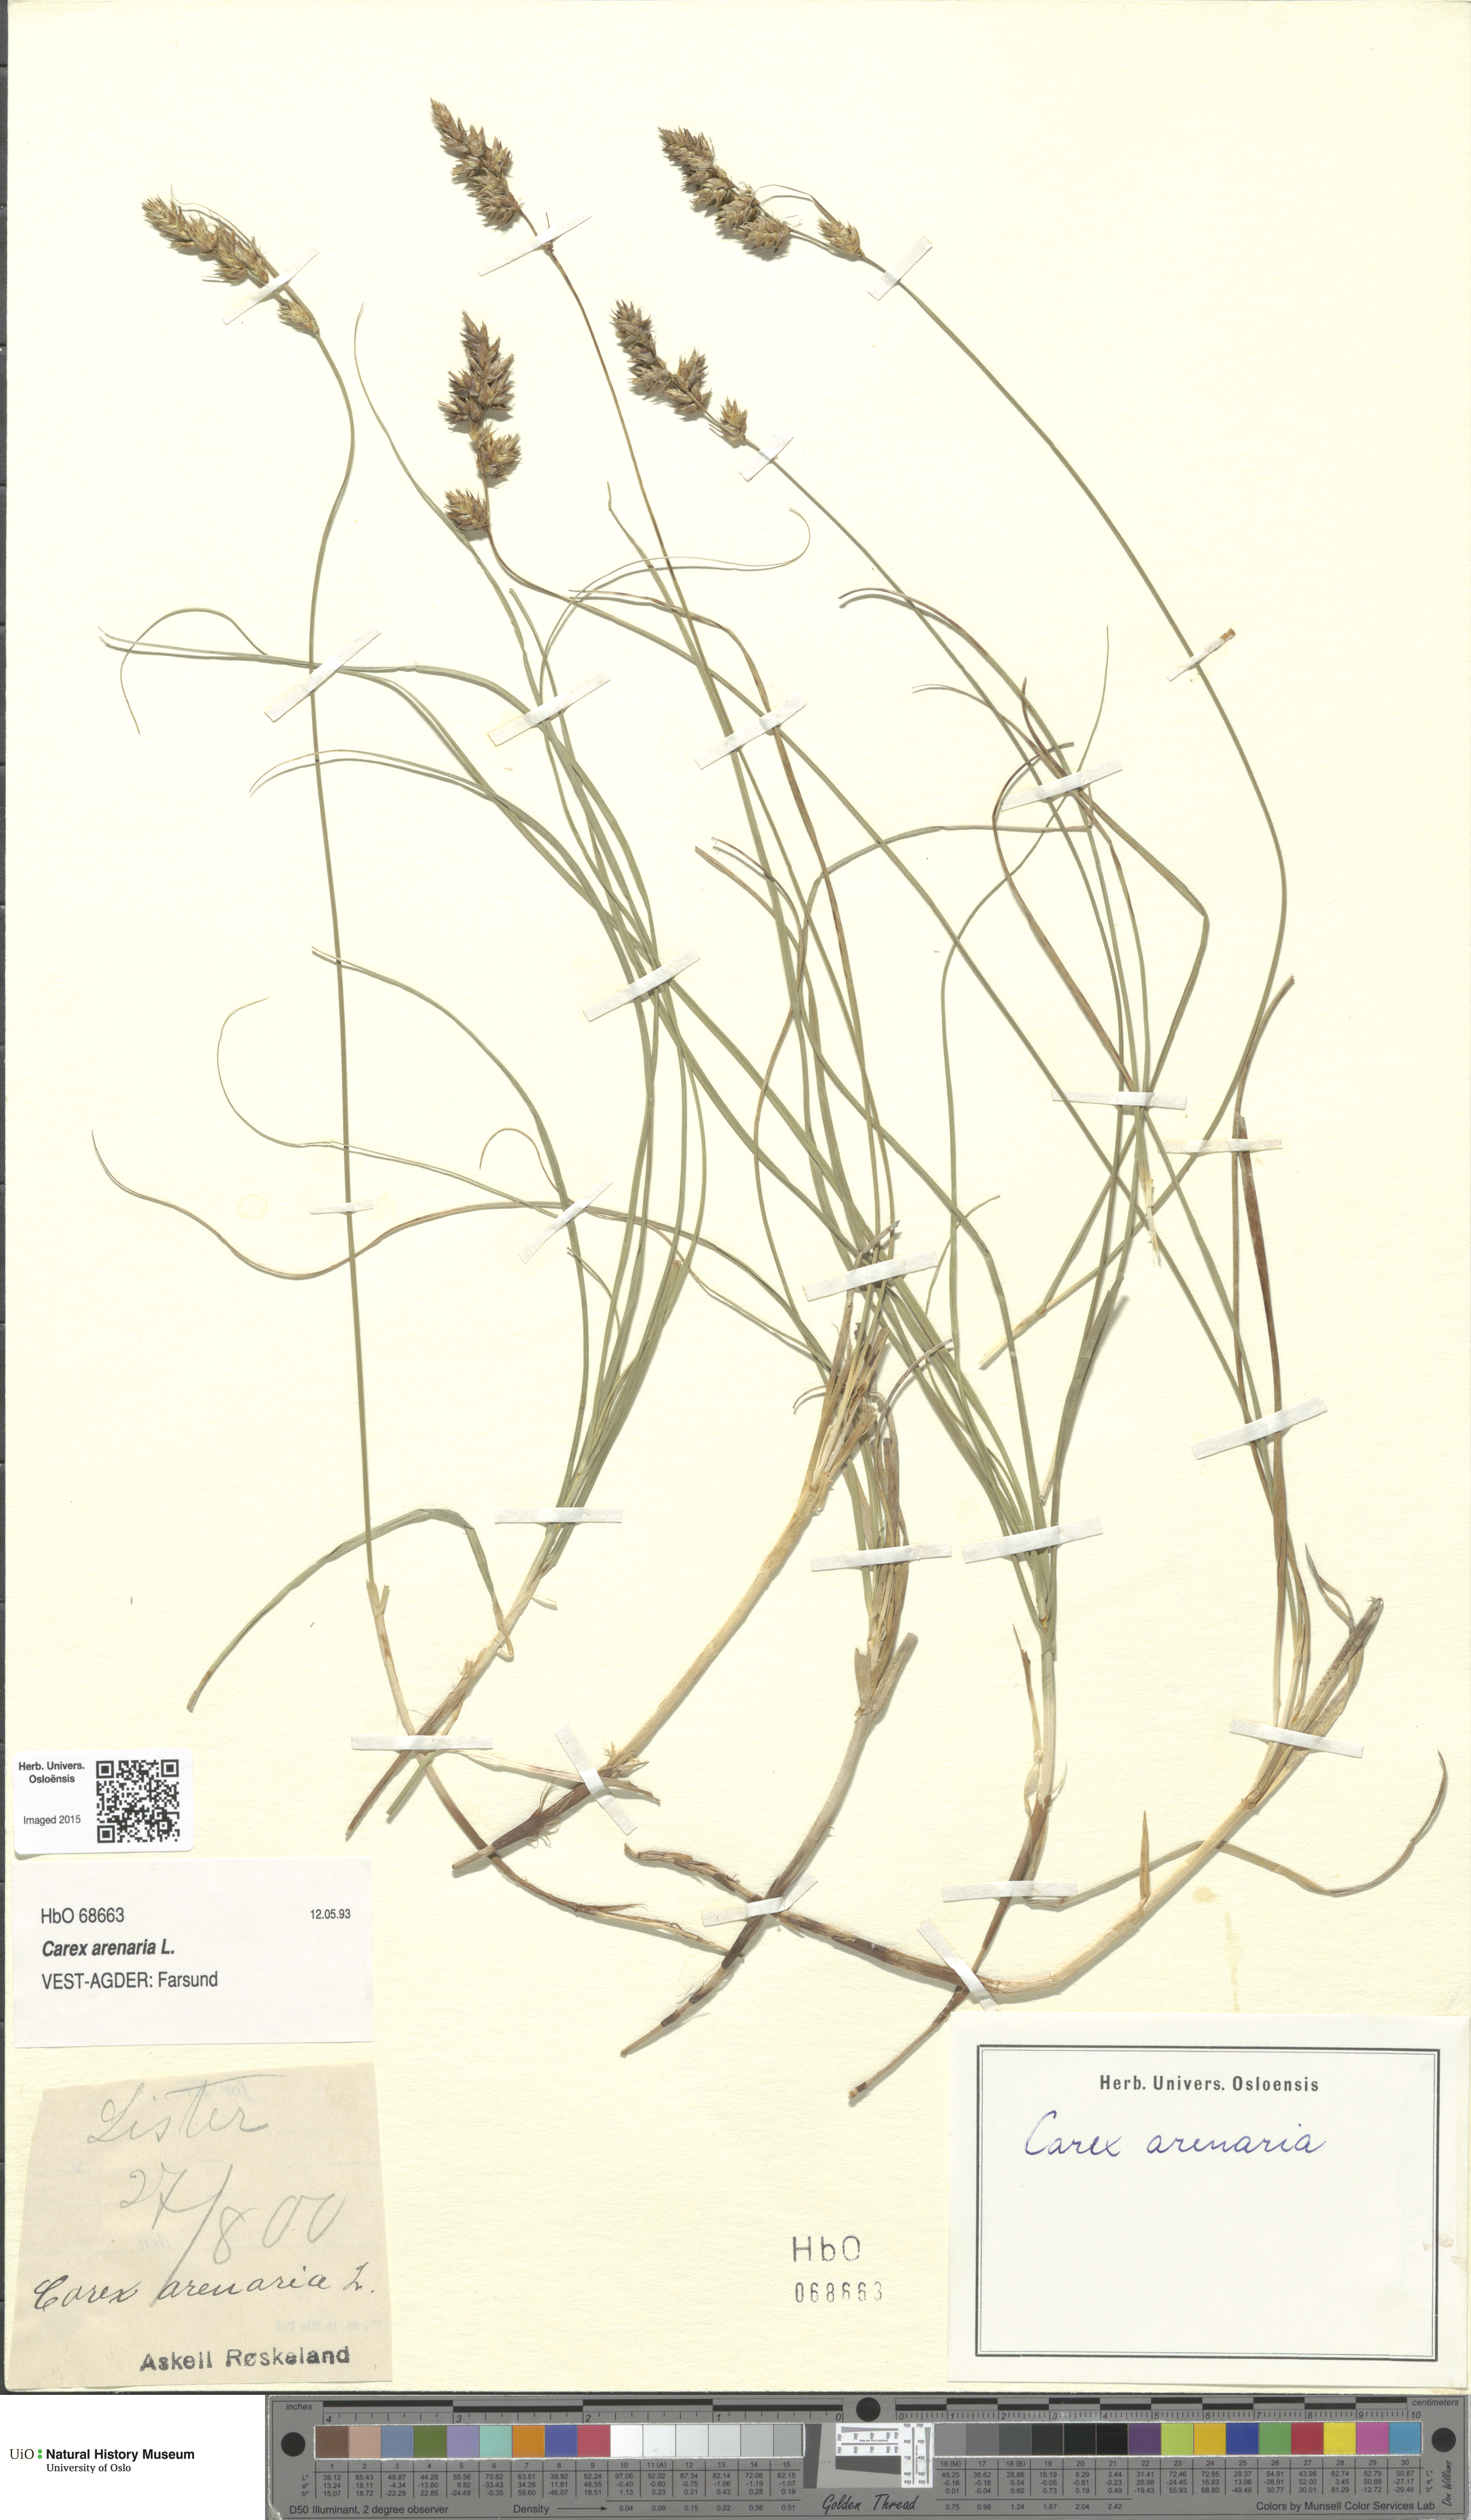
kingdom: Plantae
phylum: Tracheophyta
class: Liliopsida
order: Poales
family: Cyperaceae
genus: Carex
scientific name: Carex arenaria
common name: Sand sedge
